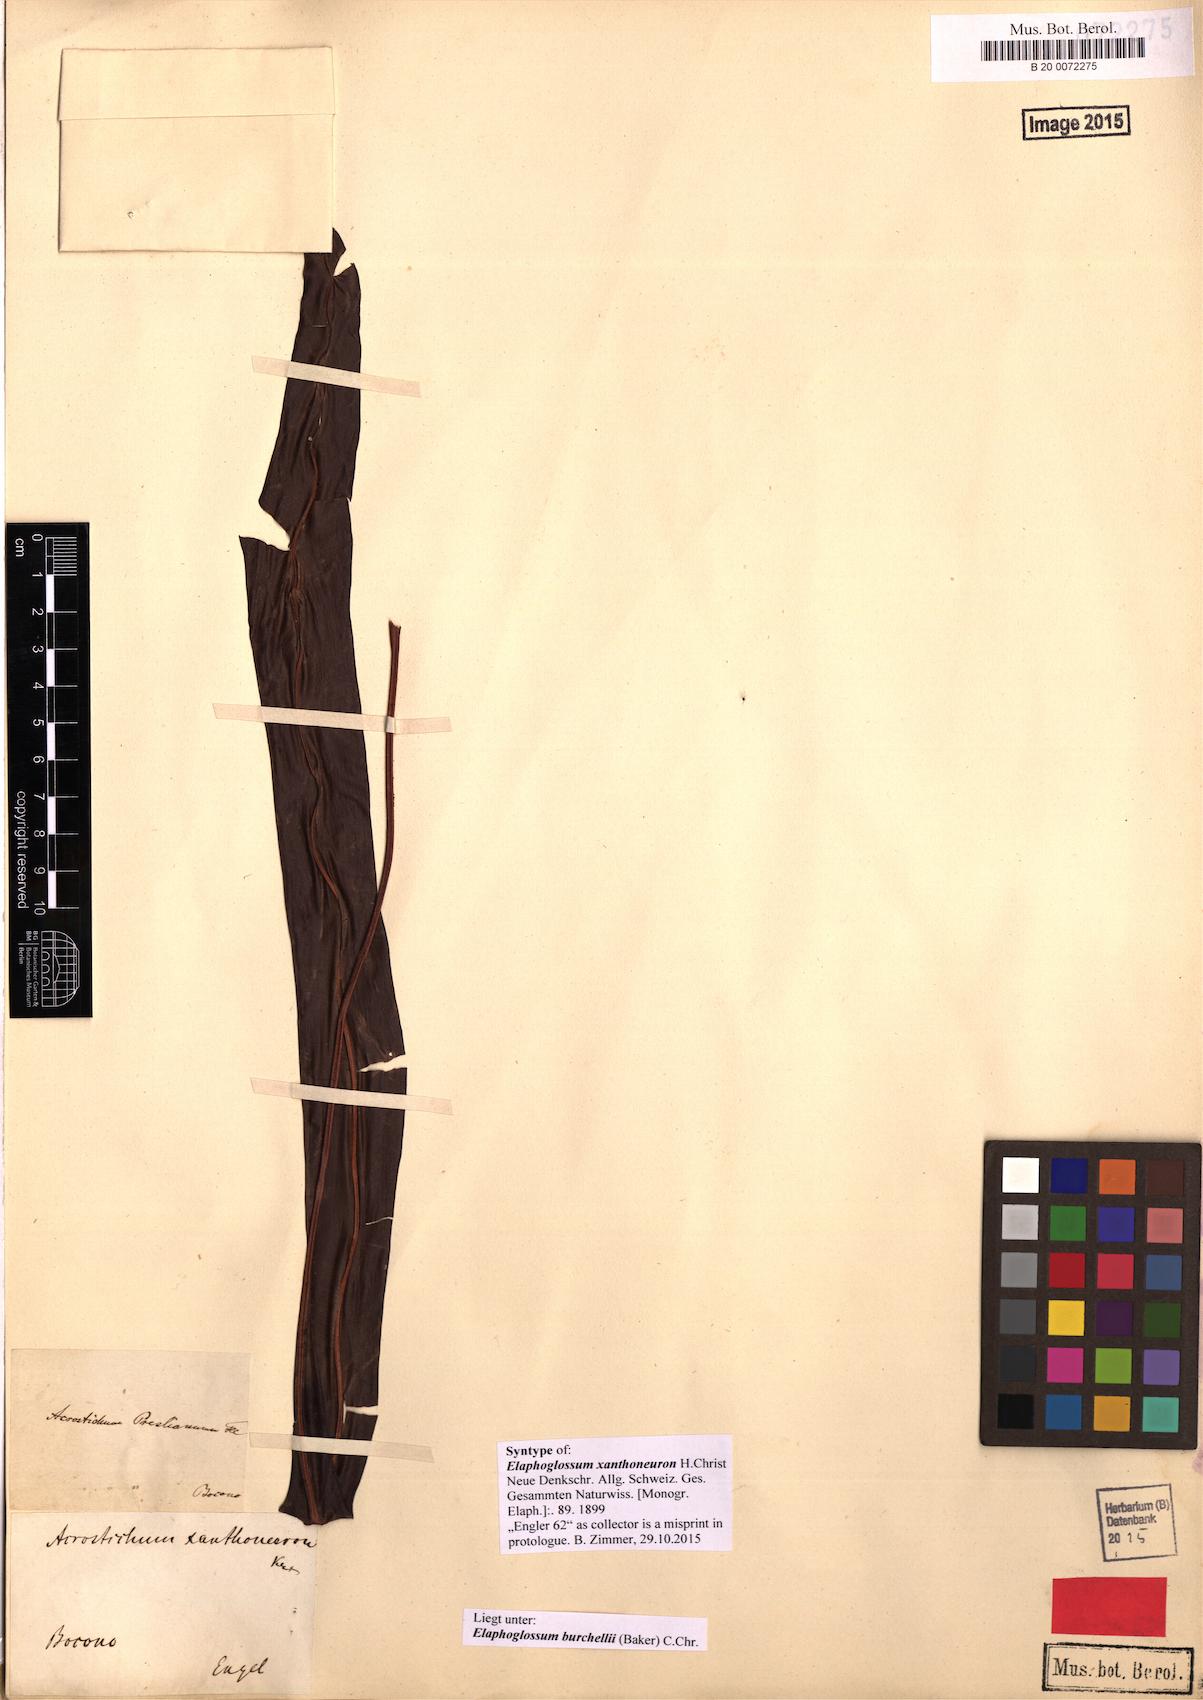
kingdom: Plantae
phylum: Tracheophyta
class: Polypodiopsida
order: Polypodiales
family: Dryopteridaceae
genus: Elaphoglossum
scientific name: Elaphoglossum burchellii
